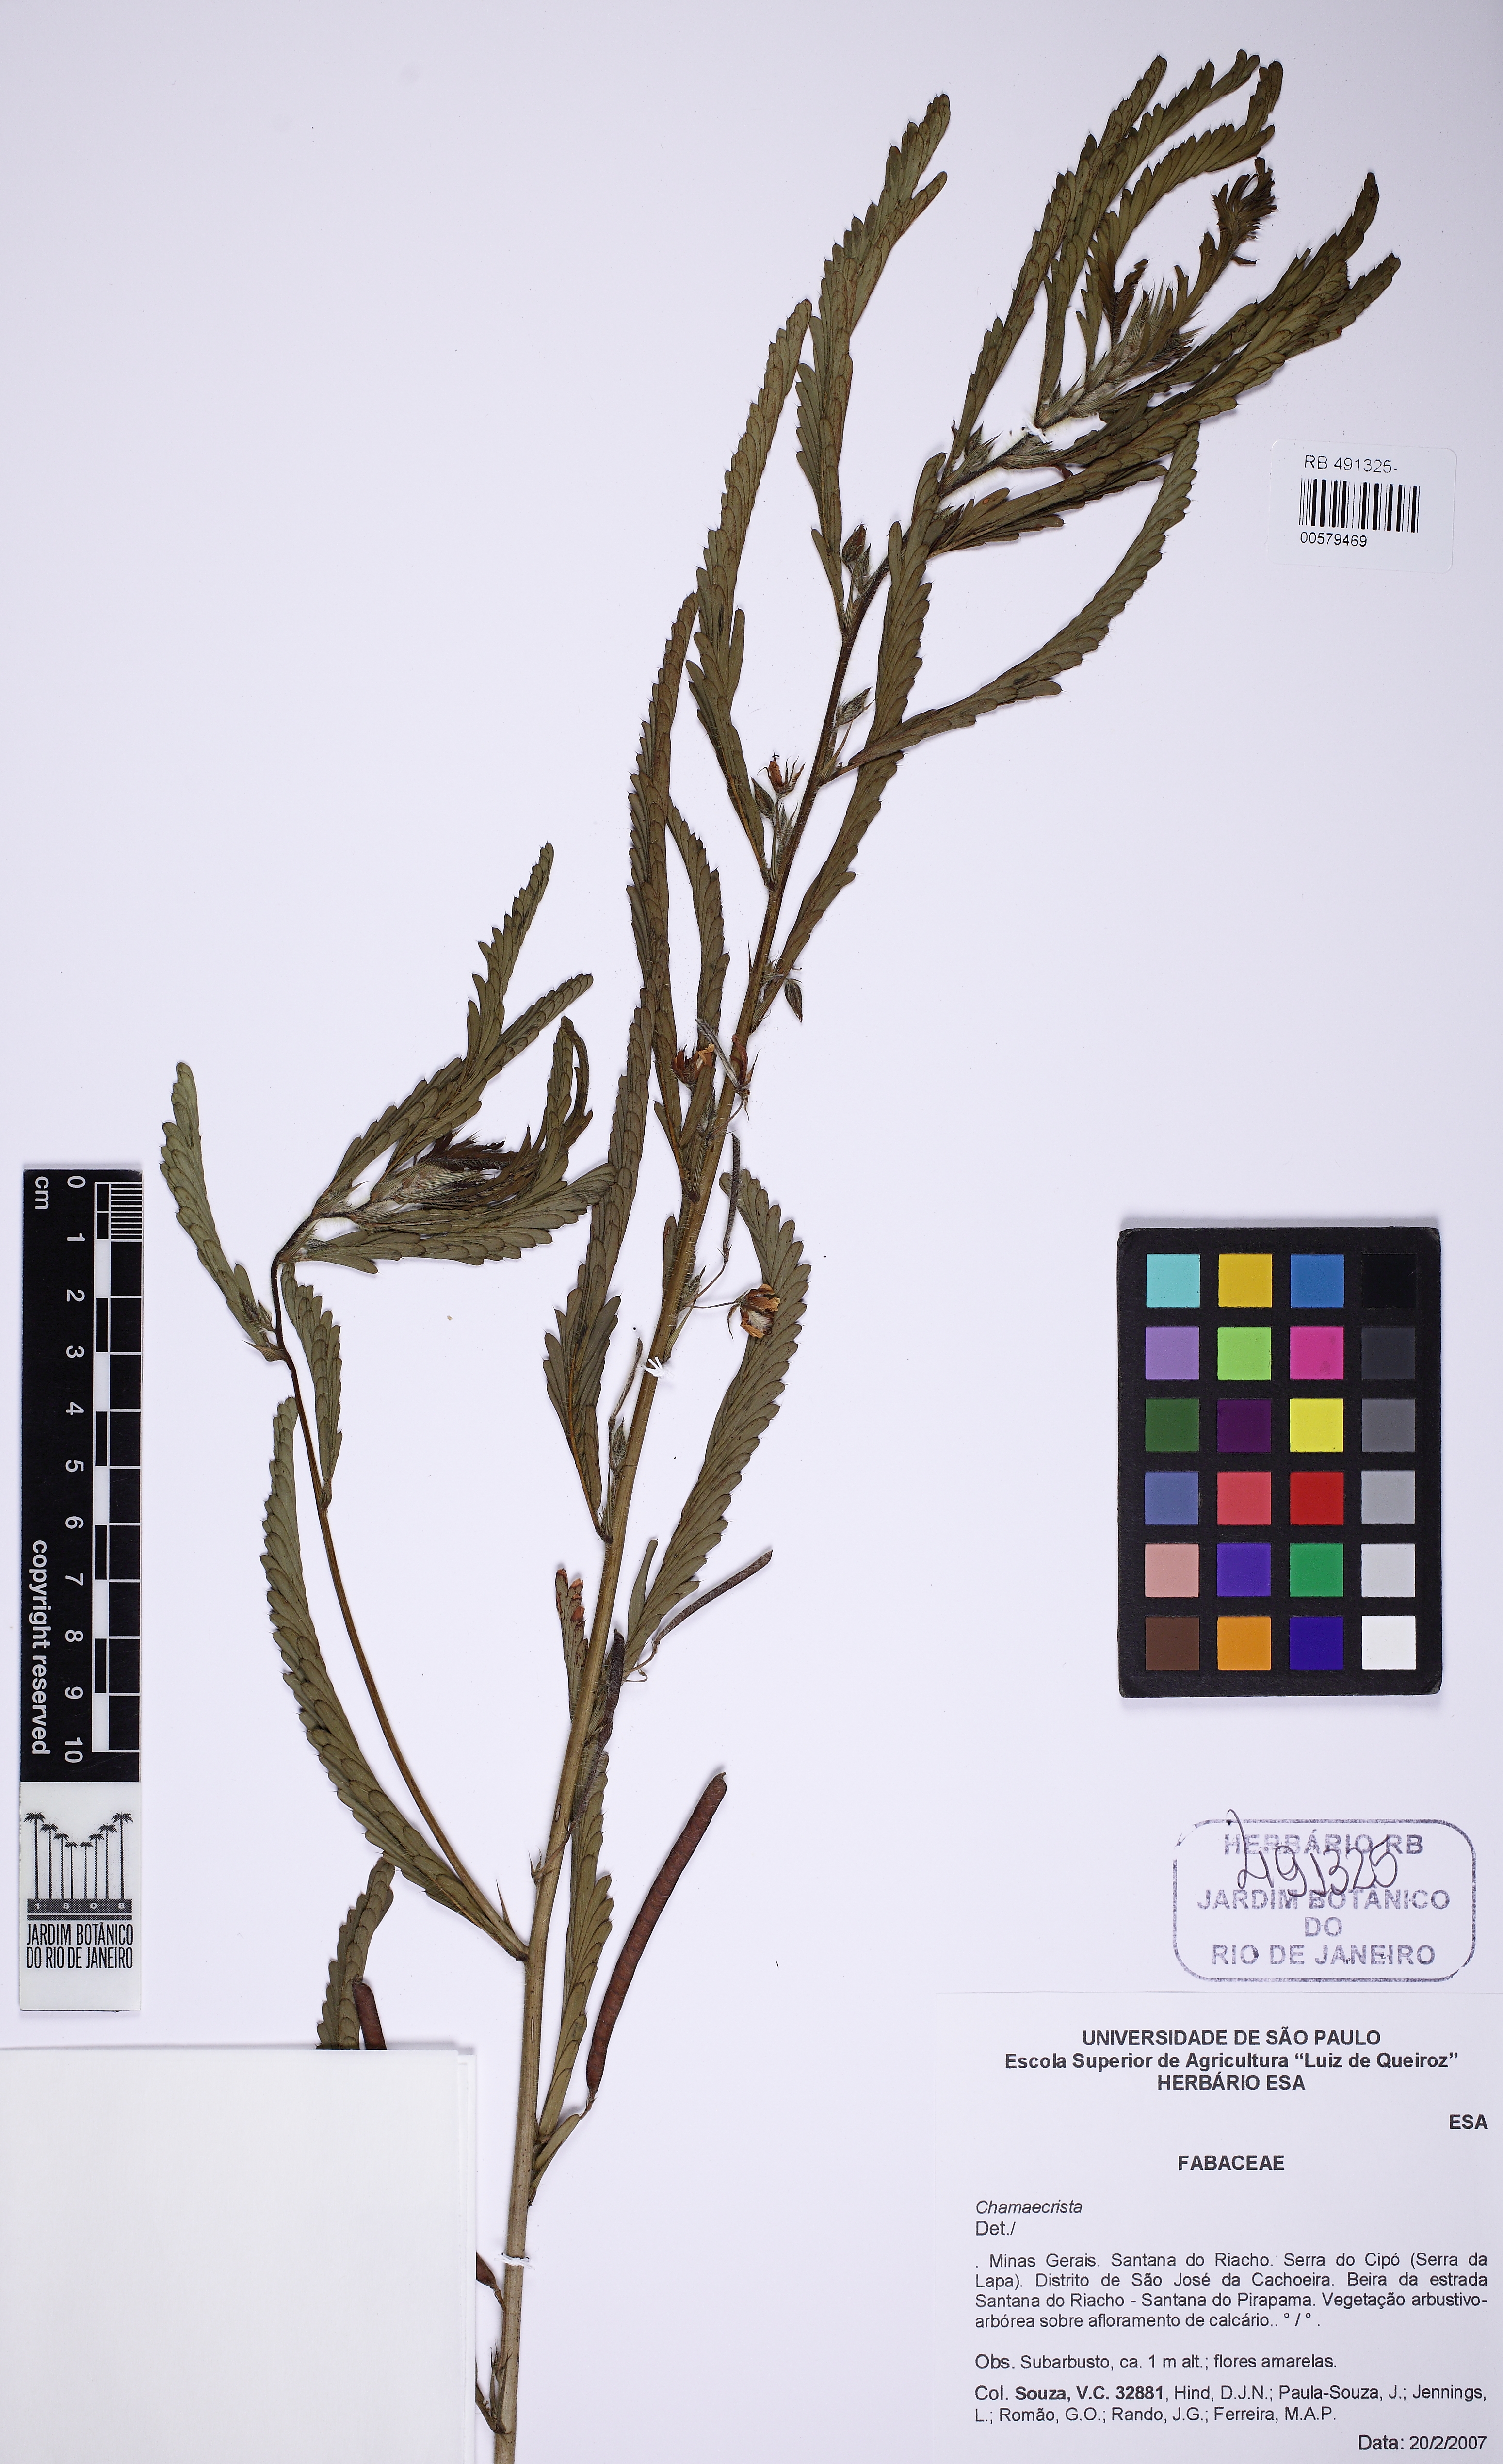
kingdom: Plantae
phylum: Tracheophyta
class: Magnoliopsida
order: Fabales
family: Fabaceae
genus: Chamaecrista
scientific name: Chamaecrista
